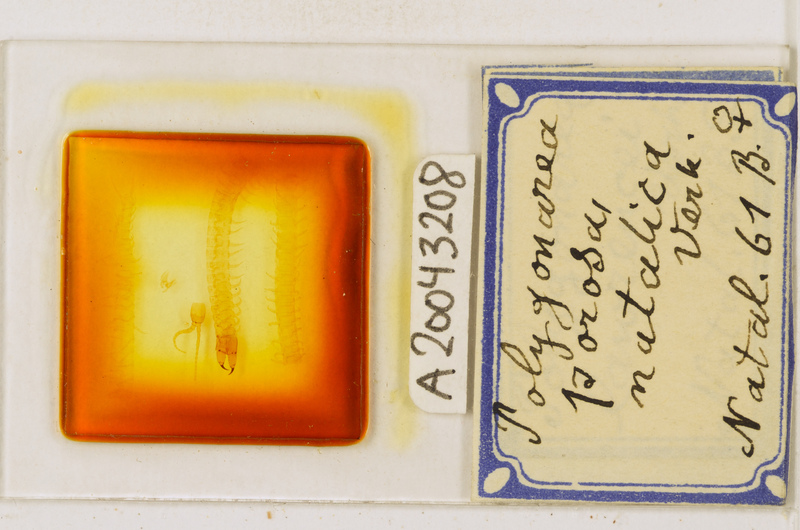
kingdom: Animalia
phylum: Arthropoda
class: Chilopoda
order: Geophilomorpha
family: Geophilidae
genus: Polygonarea
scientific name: Polygonarea africana
